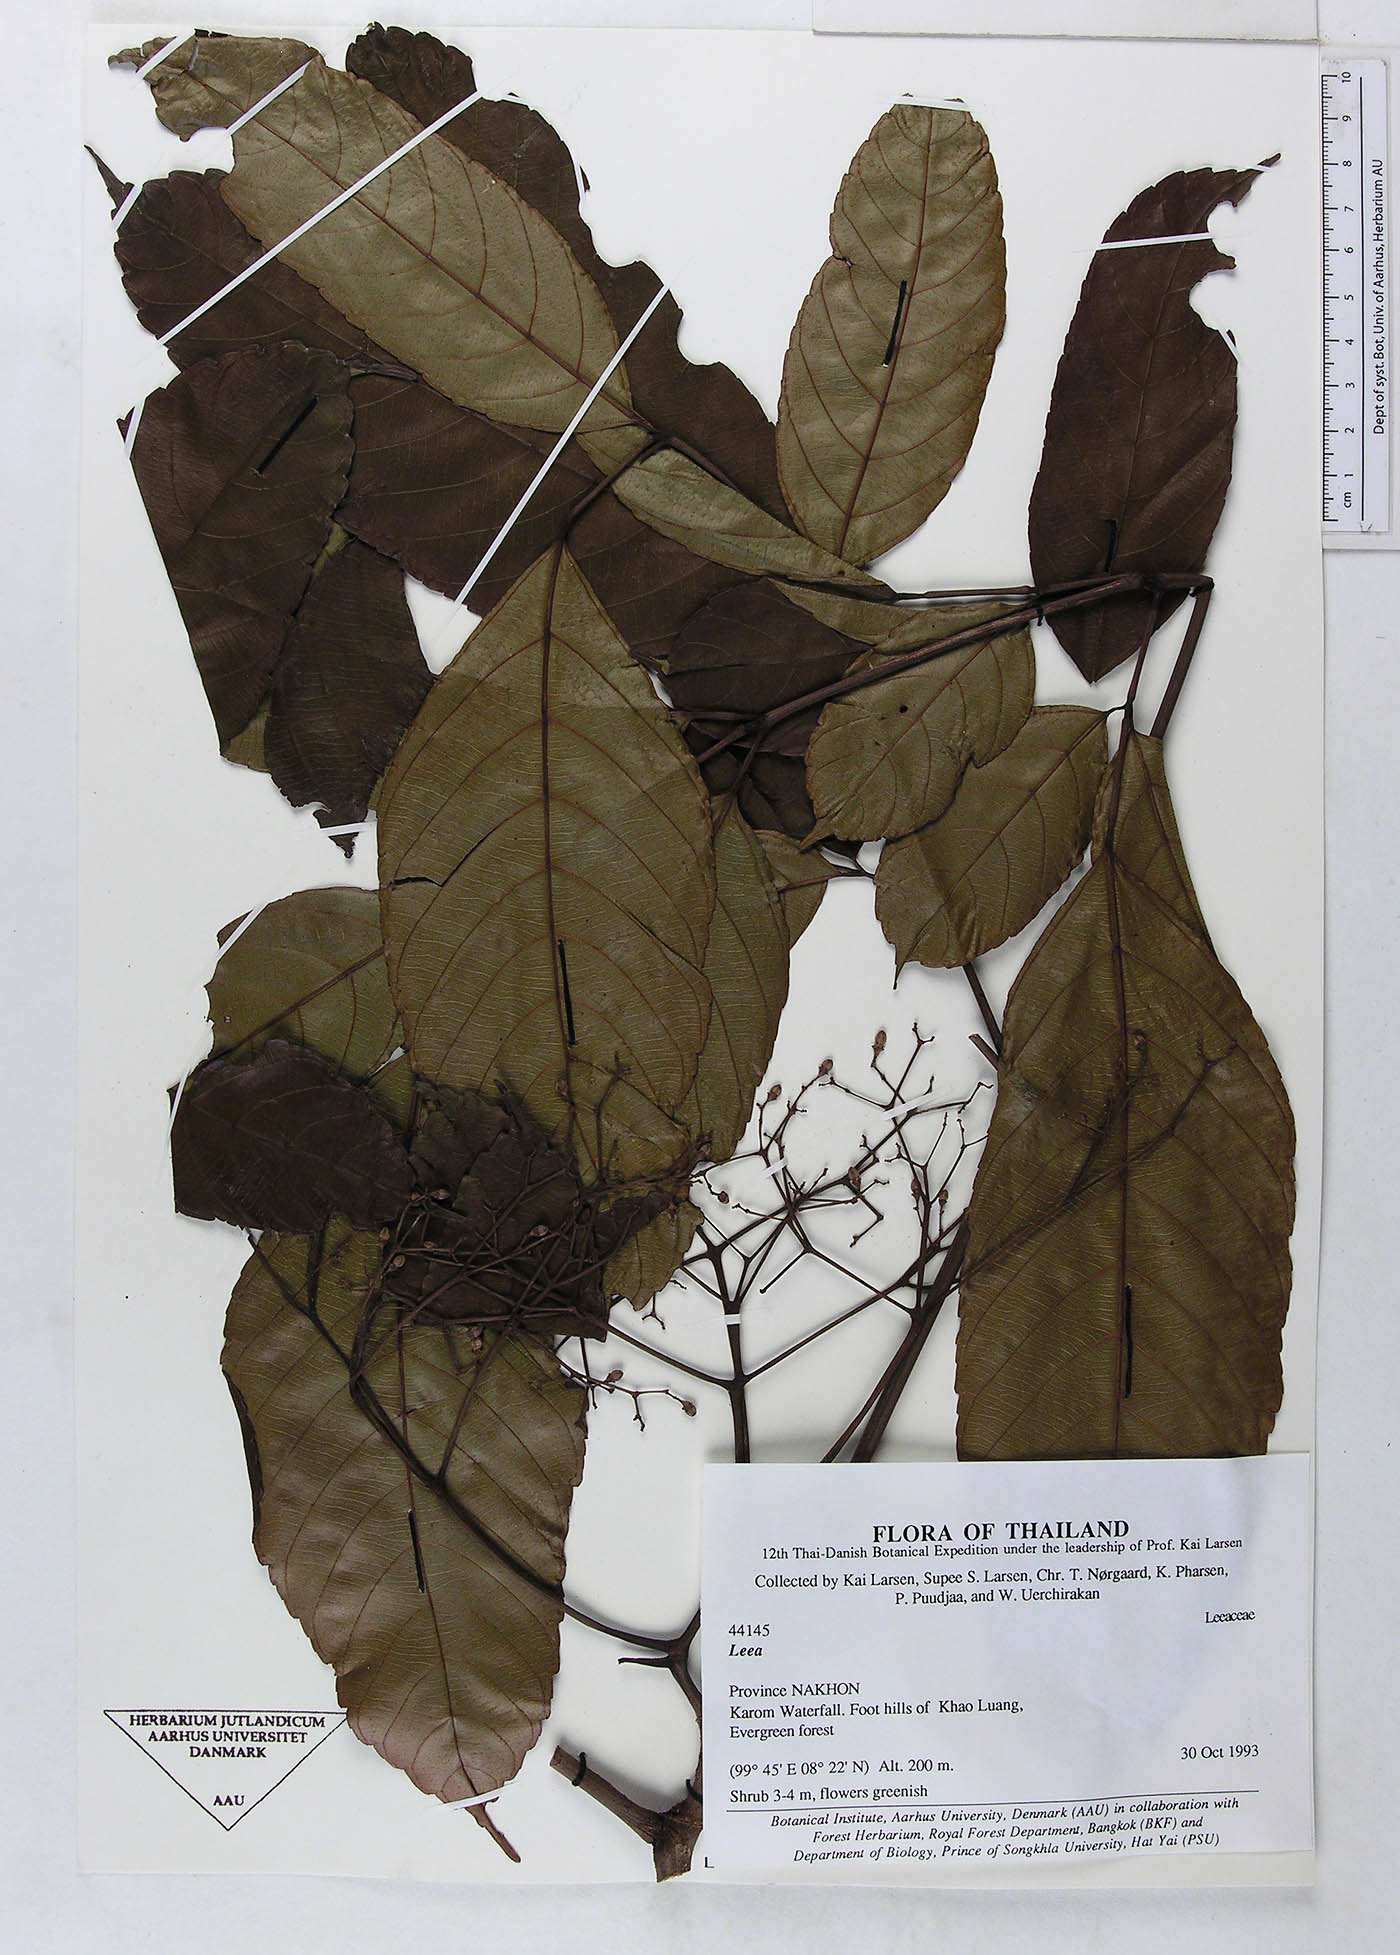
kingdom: Plantae
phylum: Tracheophyta
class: Magnoliopsida
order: Vitales
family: Vitaceae
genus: Leea
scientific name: Leea indica
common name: Bandicoot-berry
